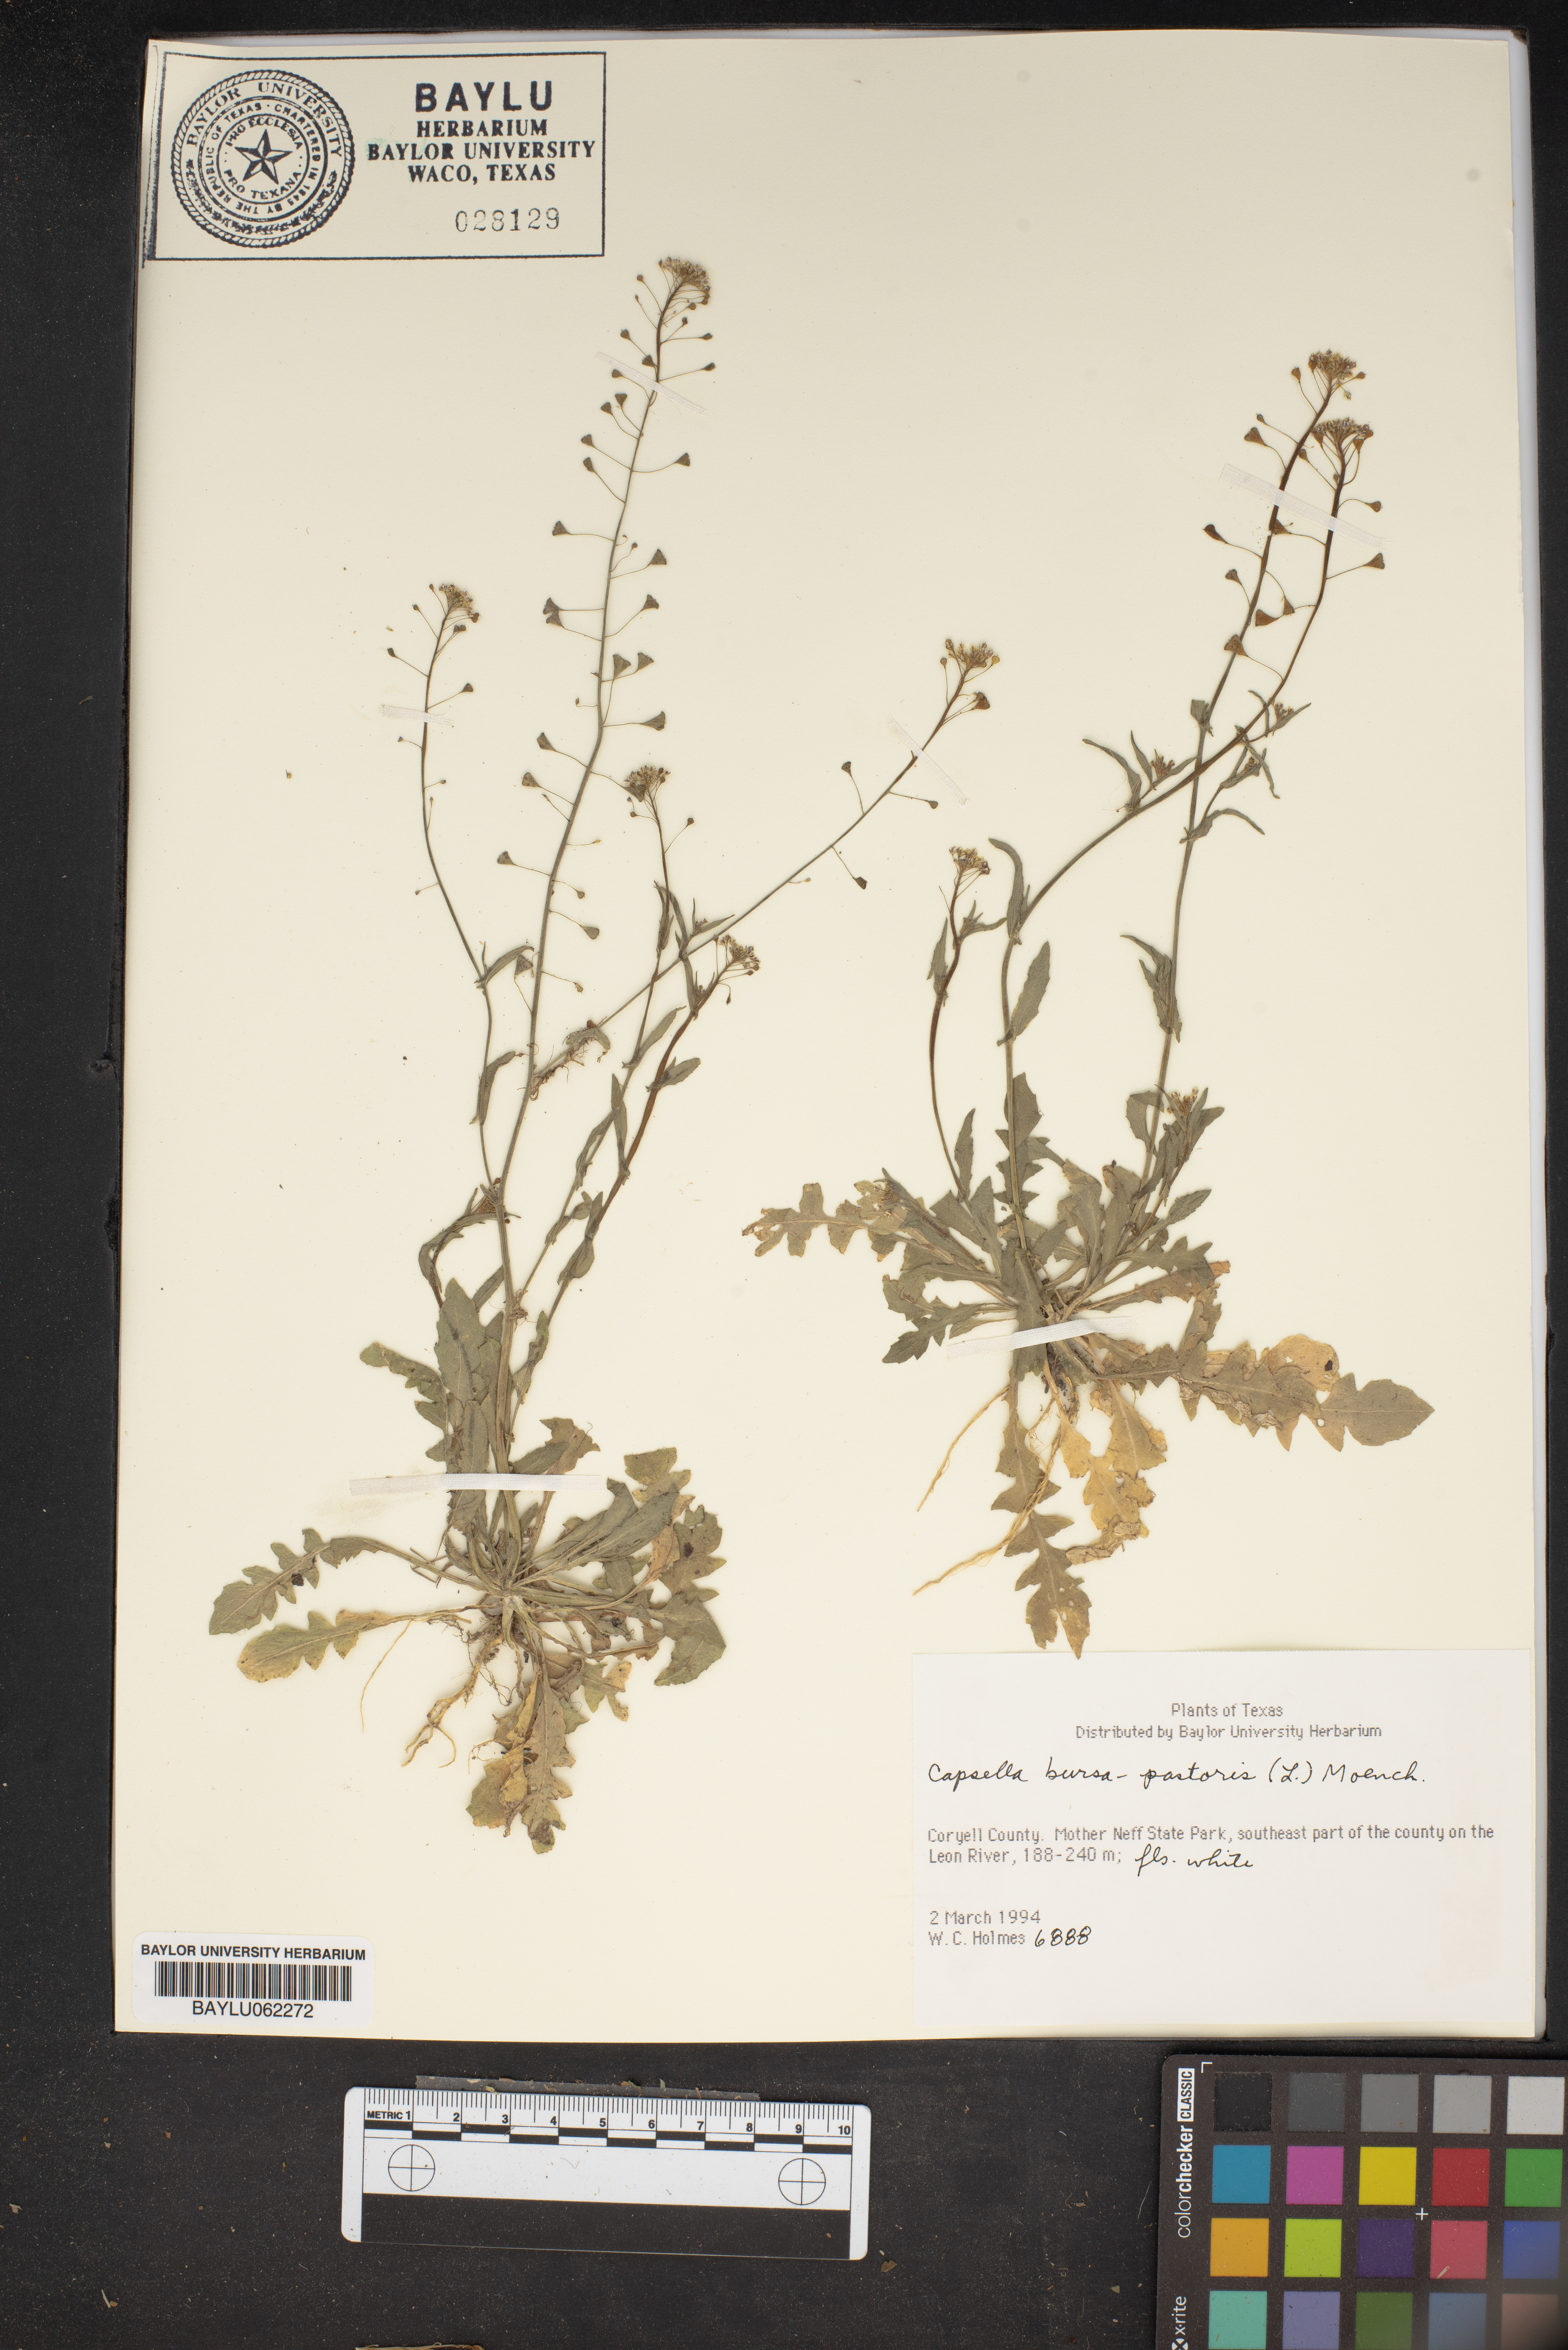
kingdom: Plantae
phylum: Tracheophyta
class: Magnoliopsida
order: Brassicales
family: Brassicaceae
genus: Capsella
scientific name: Capsella bursa-pastoris
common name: Shepherd's purse
